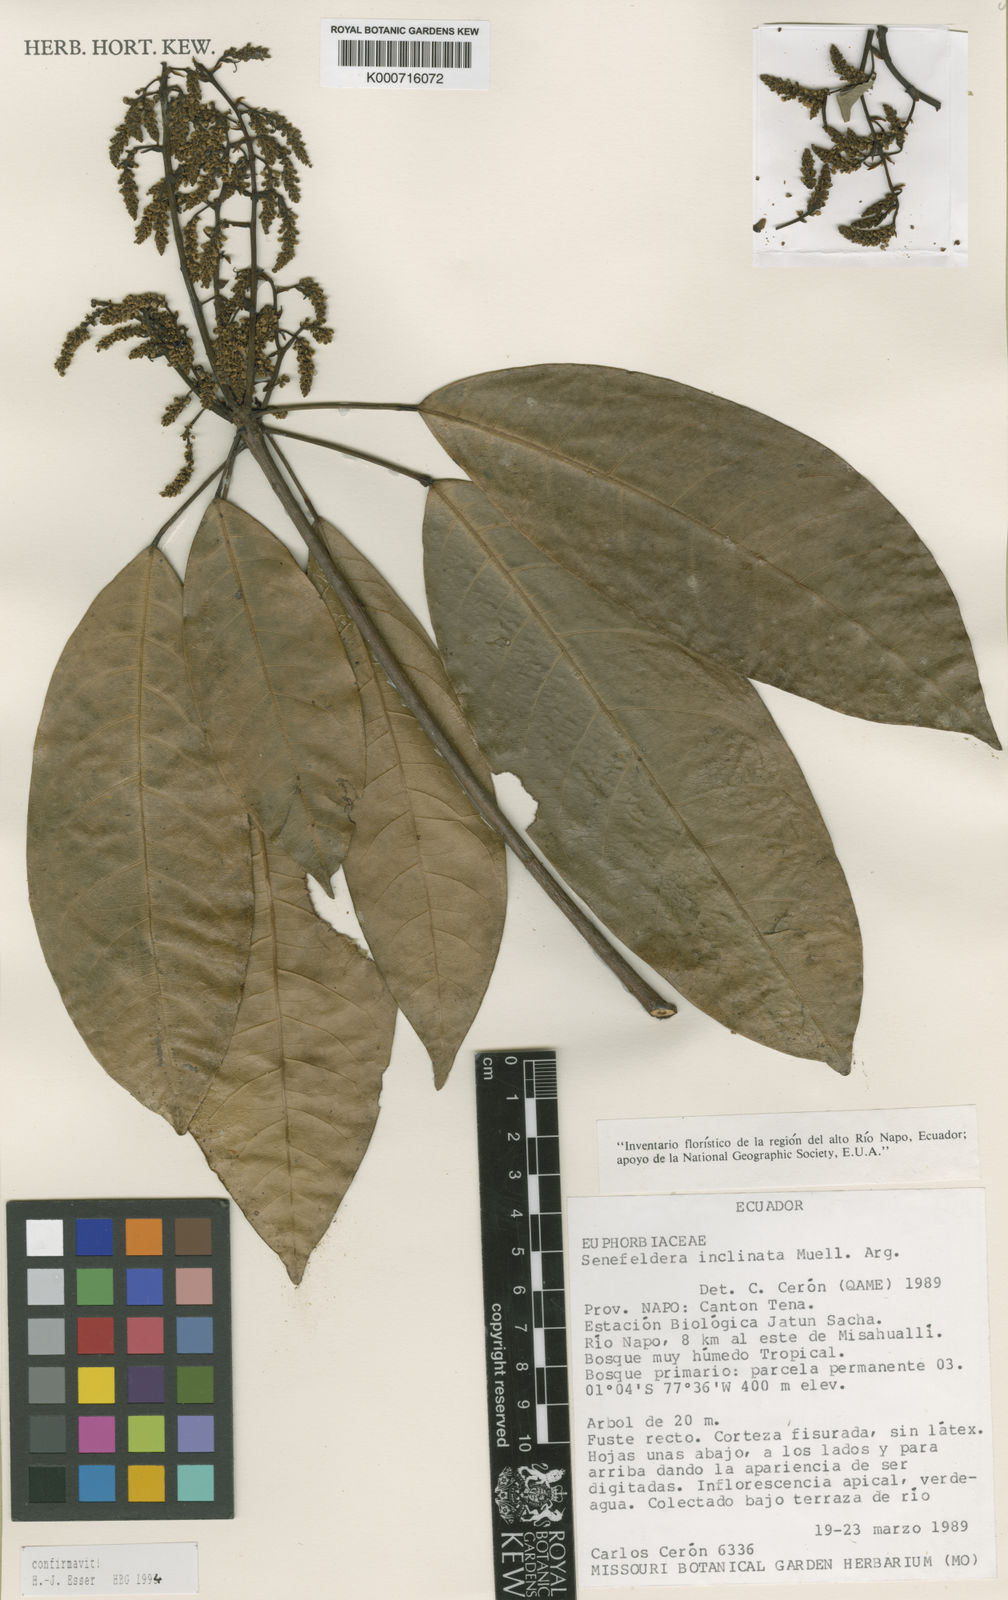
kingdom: Plantae
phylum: Tracheophyta
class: Magnoliopsida
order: Malpighiales
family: Euphorbiaceae
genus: Pseudosenefeldera
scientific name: Pseudosenefeldera
